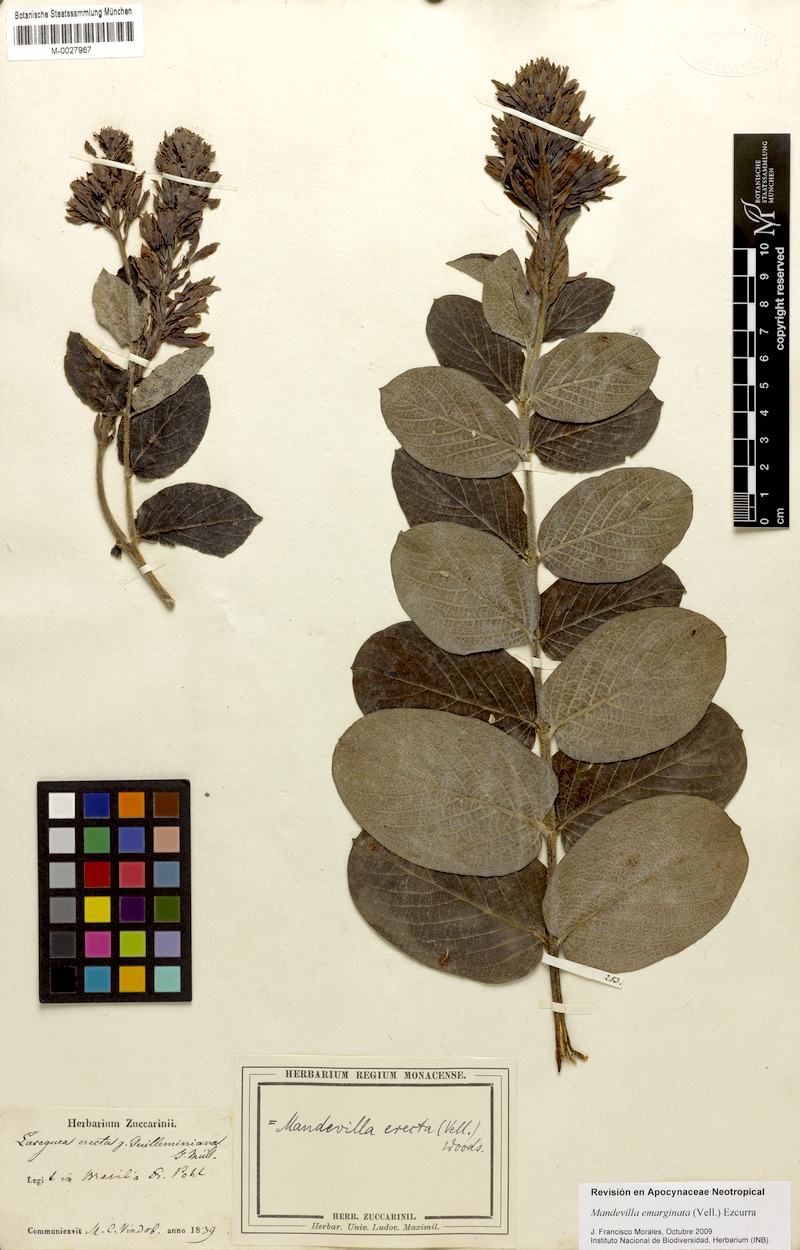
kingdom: Plantae
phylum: Tracheophyta
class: Magnoliopsida
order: Gentianales
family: Apocynaceae
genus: Mandevilla
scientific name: Mandevilla emarginata
